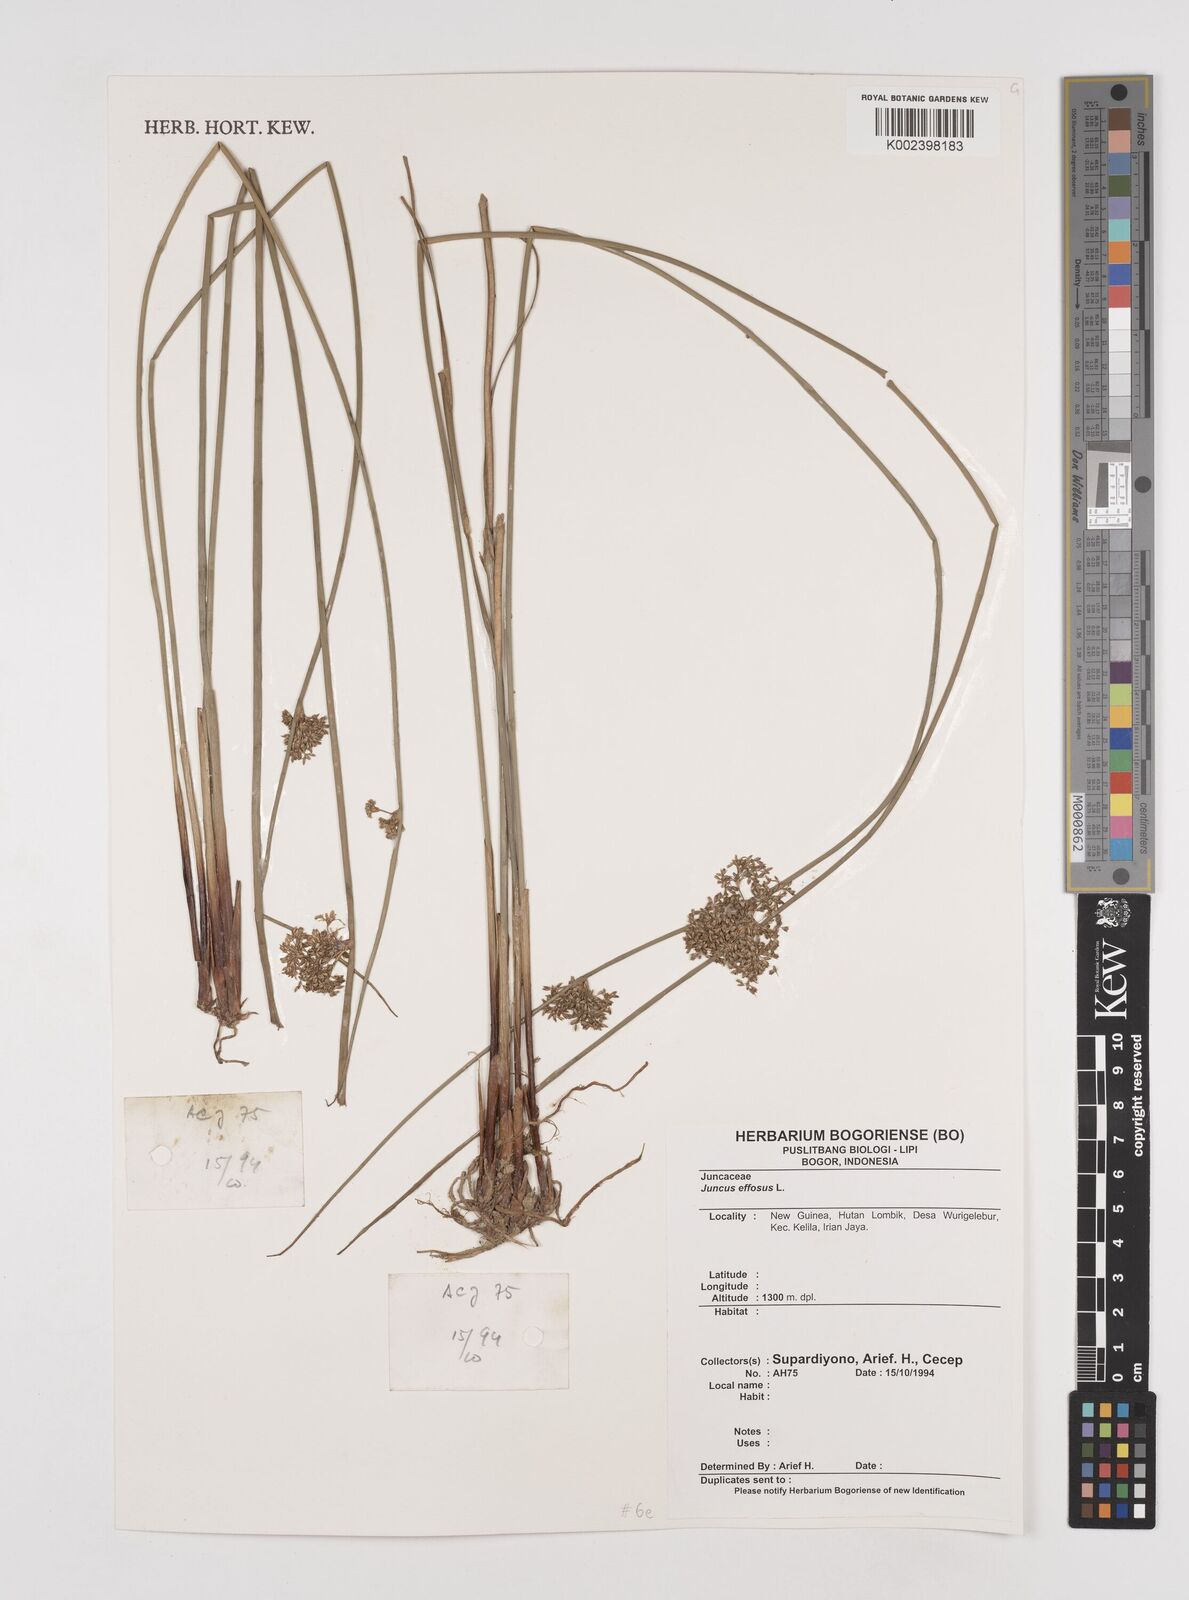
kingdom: Plantae
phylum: Tracheophyta
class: Liliopsida
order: Poales
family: Juncaceae
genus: Juncus
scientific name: Juncus decipiens
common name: Lamp rush
